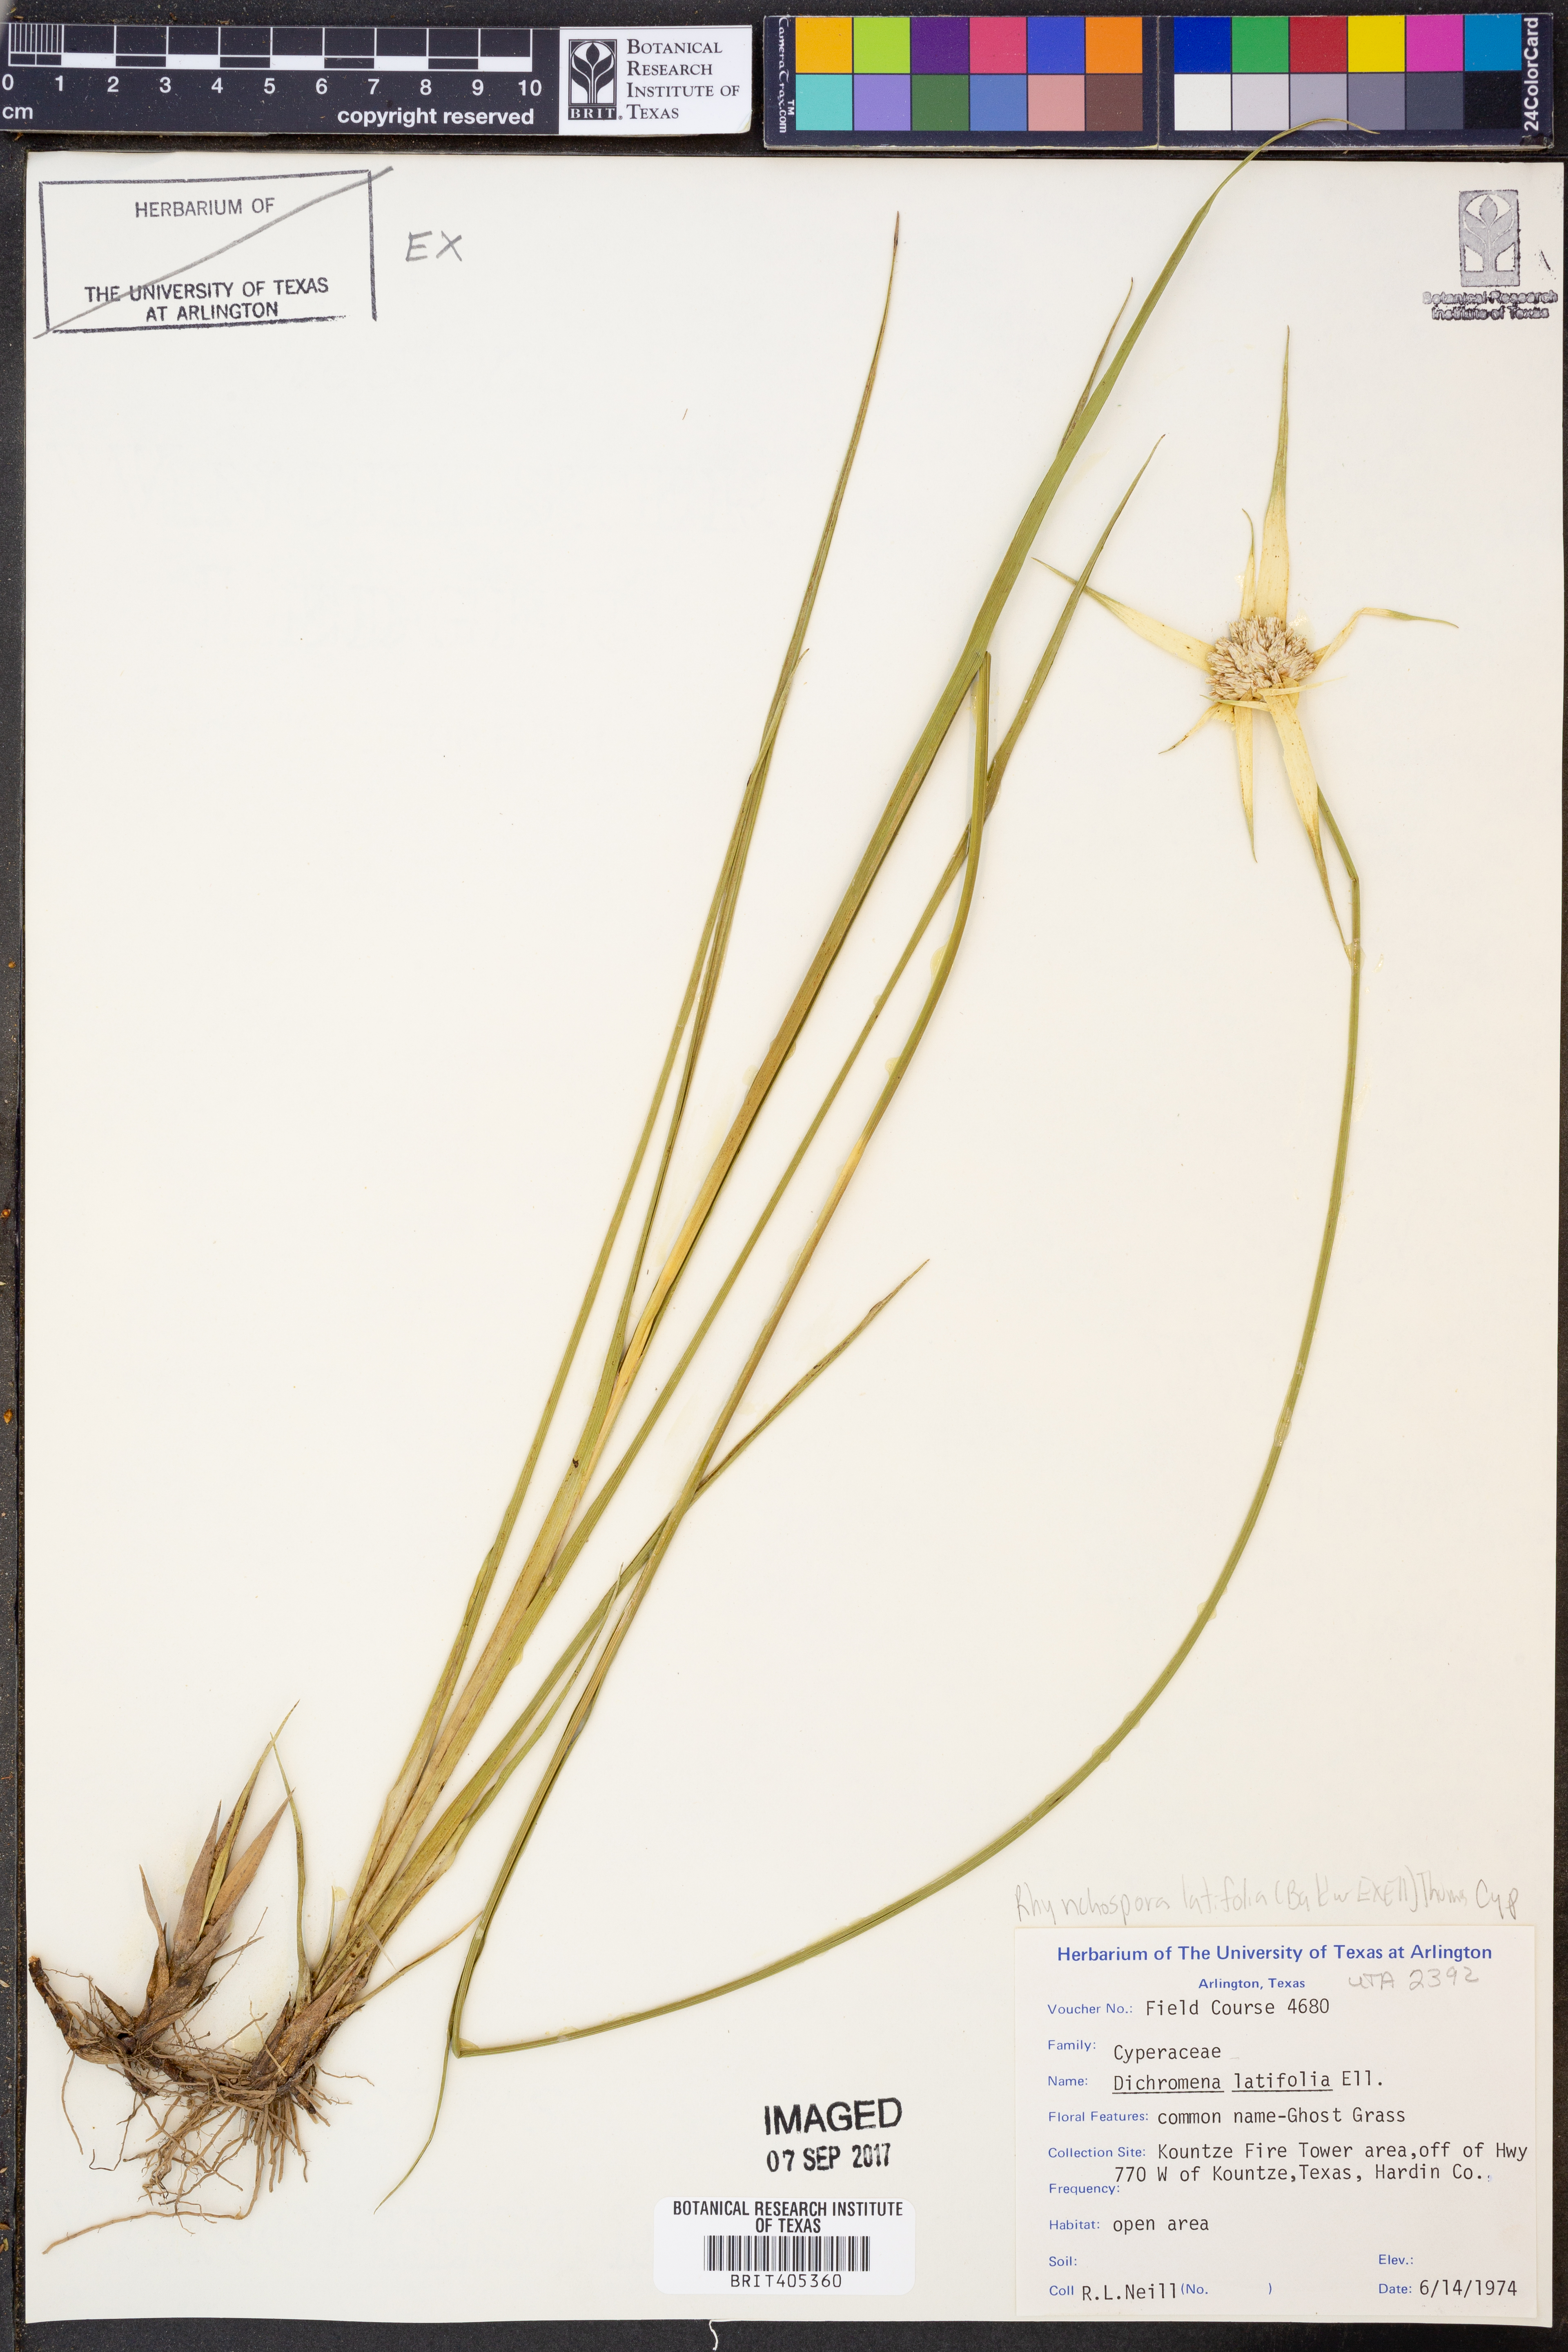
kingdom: Plantae
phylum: Tracheophyta
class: Liliopsida
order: Poales
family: Cyperaceae
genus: Rhynchospora
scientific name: Rhynchospora latifolia
